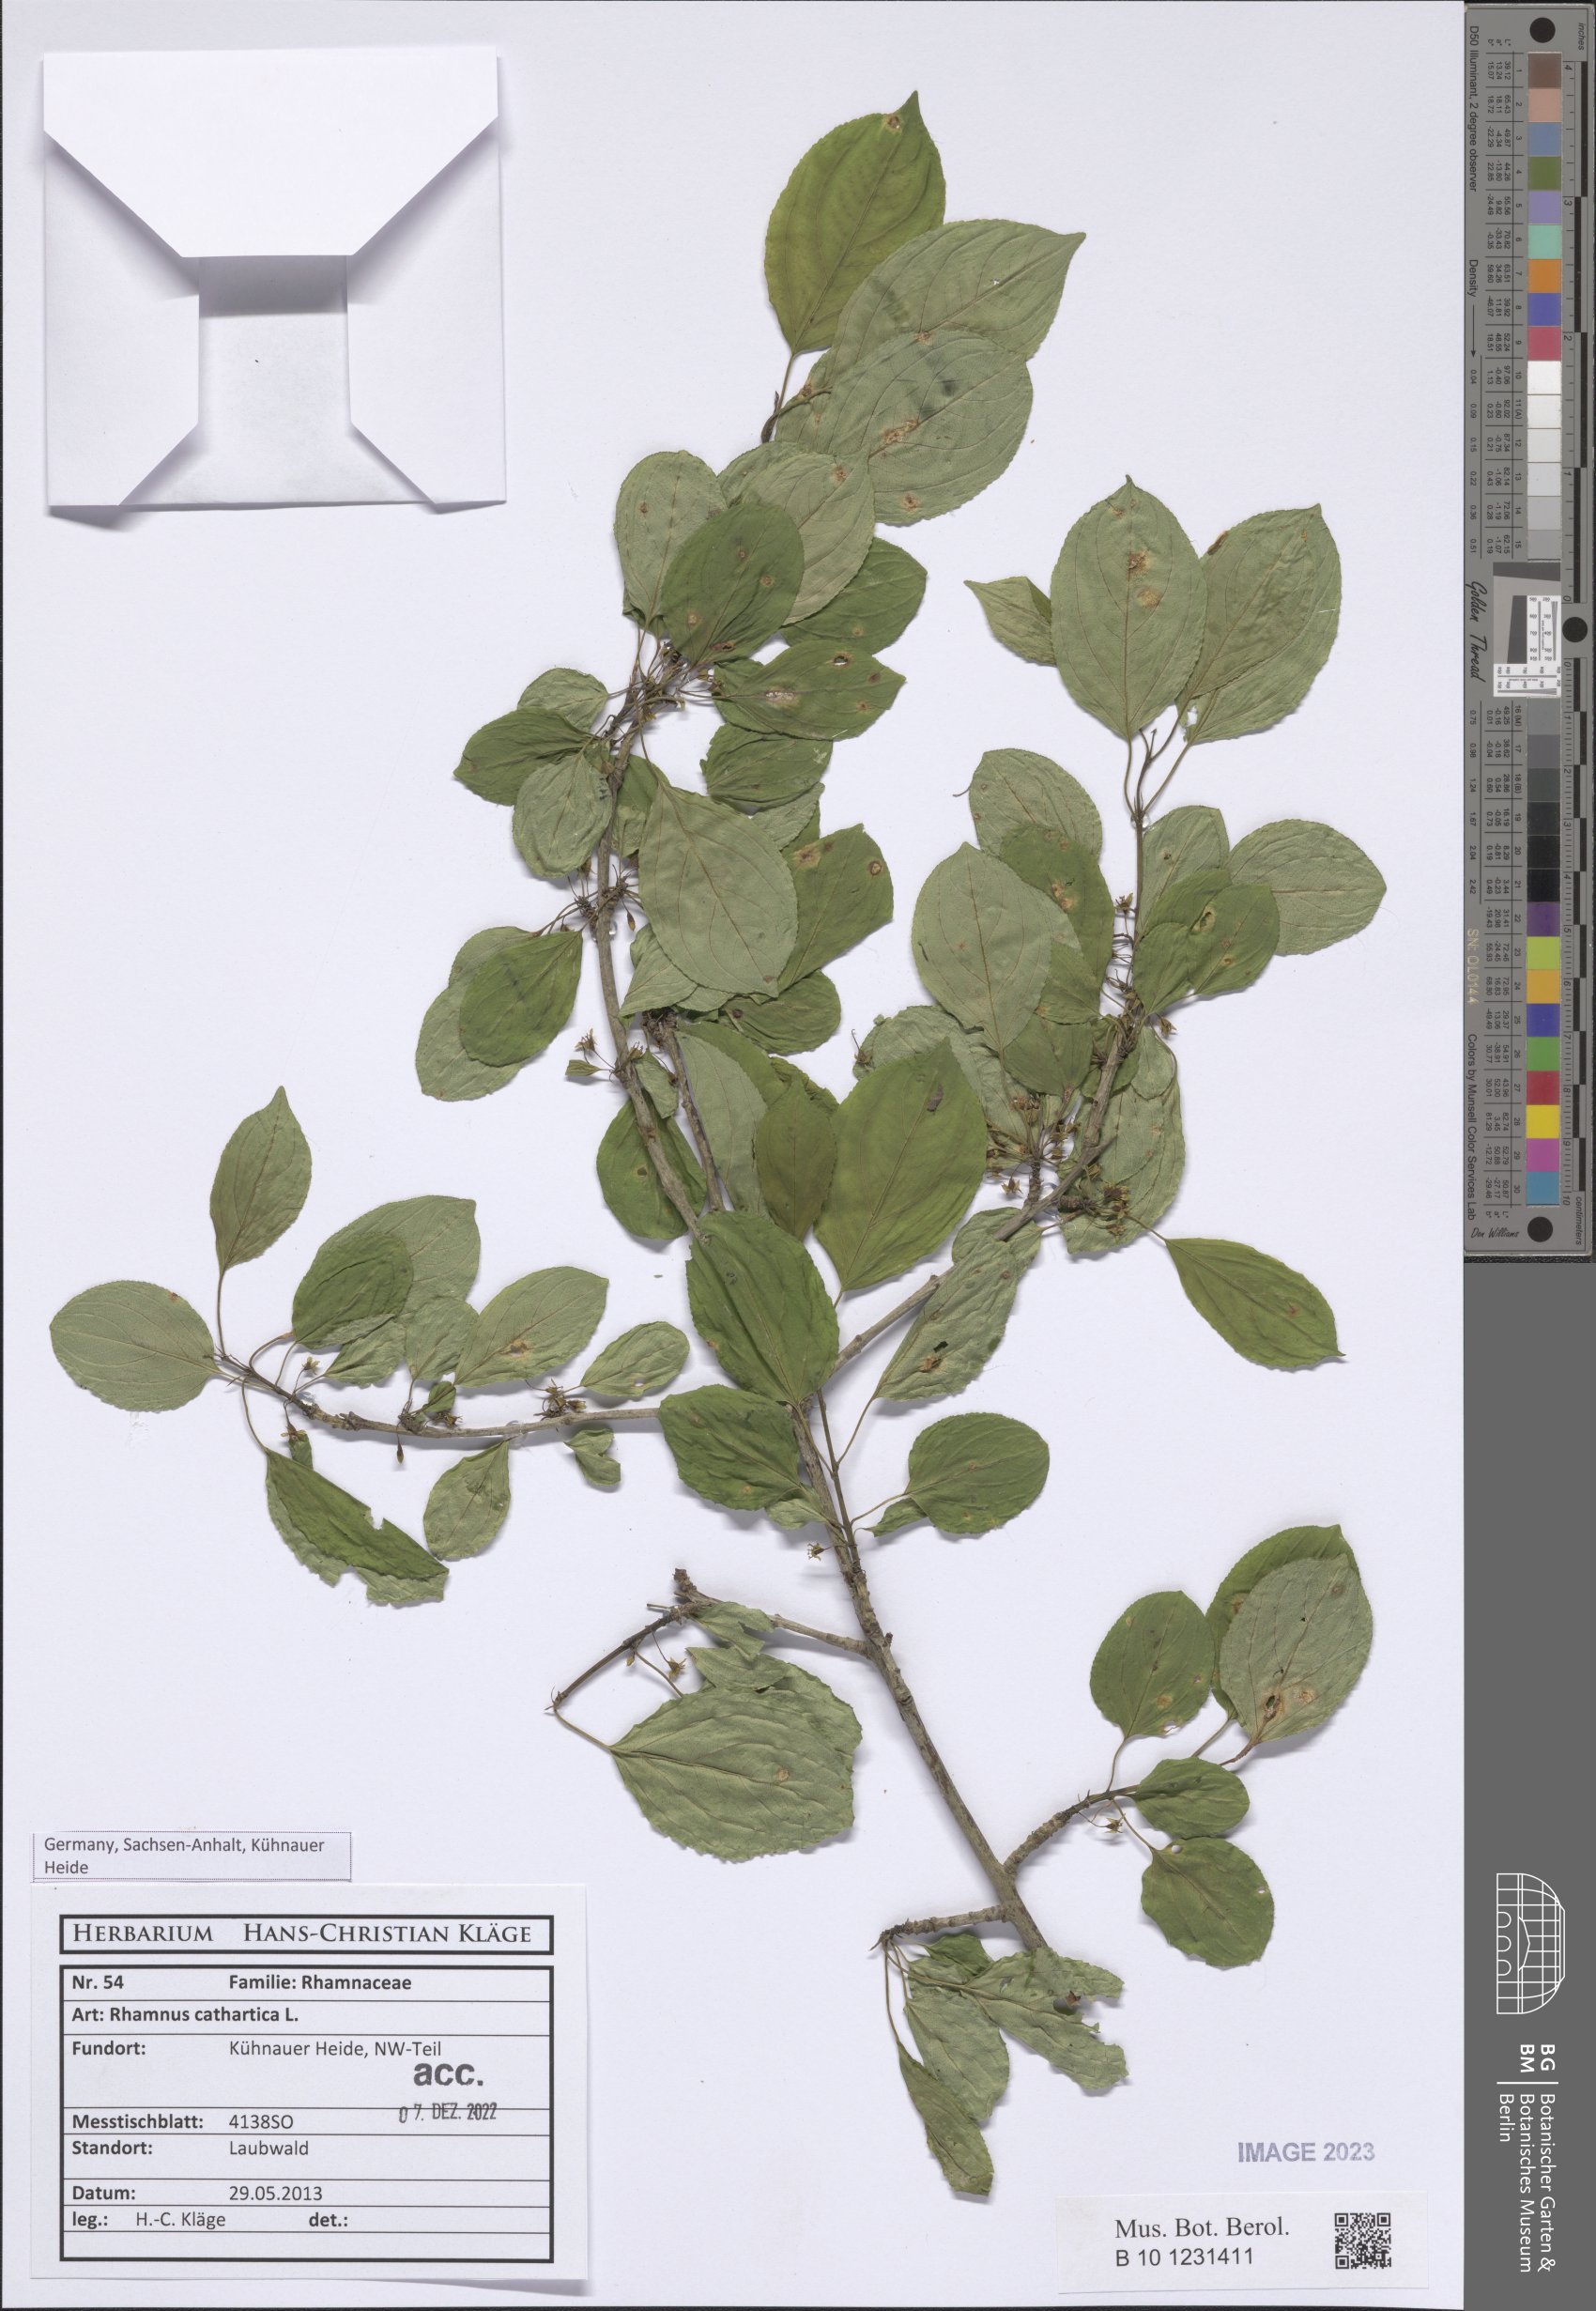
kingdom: Plantae
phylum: Tracheophyta
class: Magnoliopsida
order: Rosales
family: Rhamnaceae
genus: Rhamnus
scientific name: Rhamnus cathartica
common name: Common buckthorn
